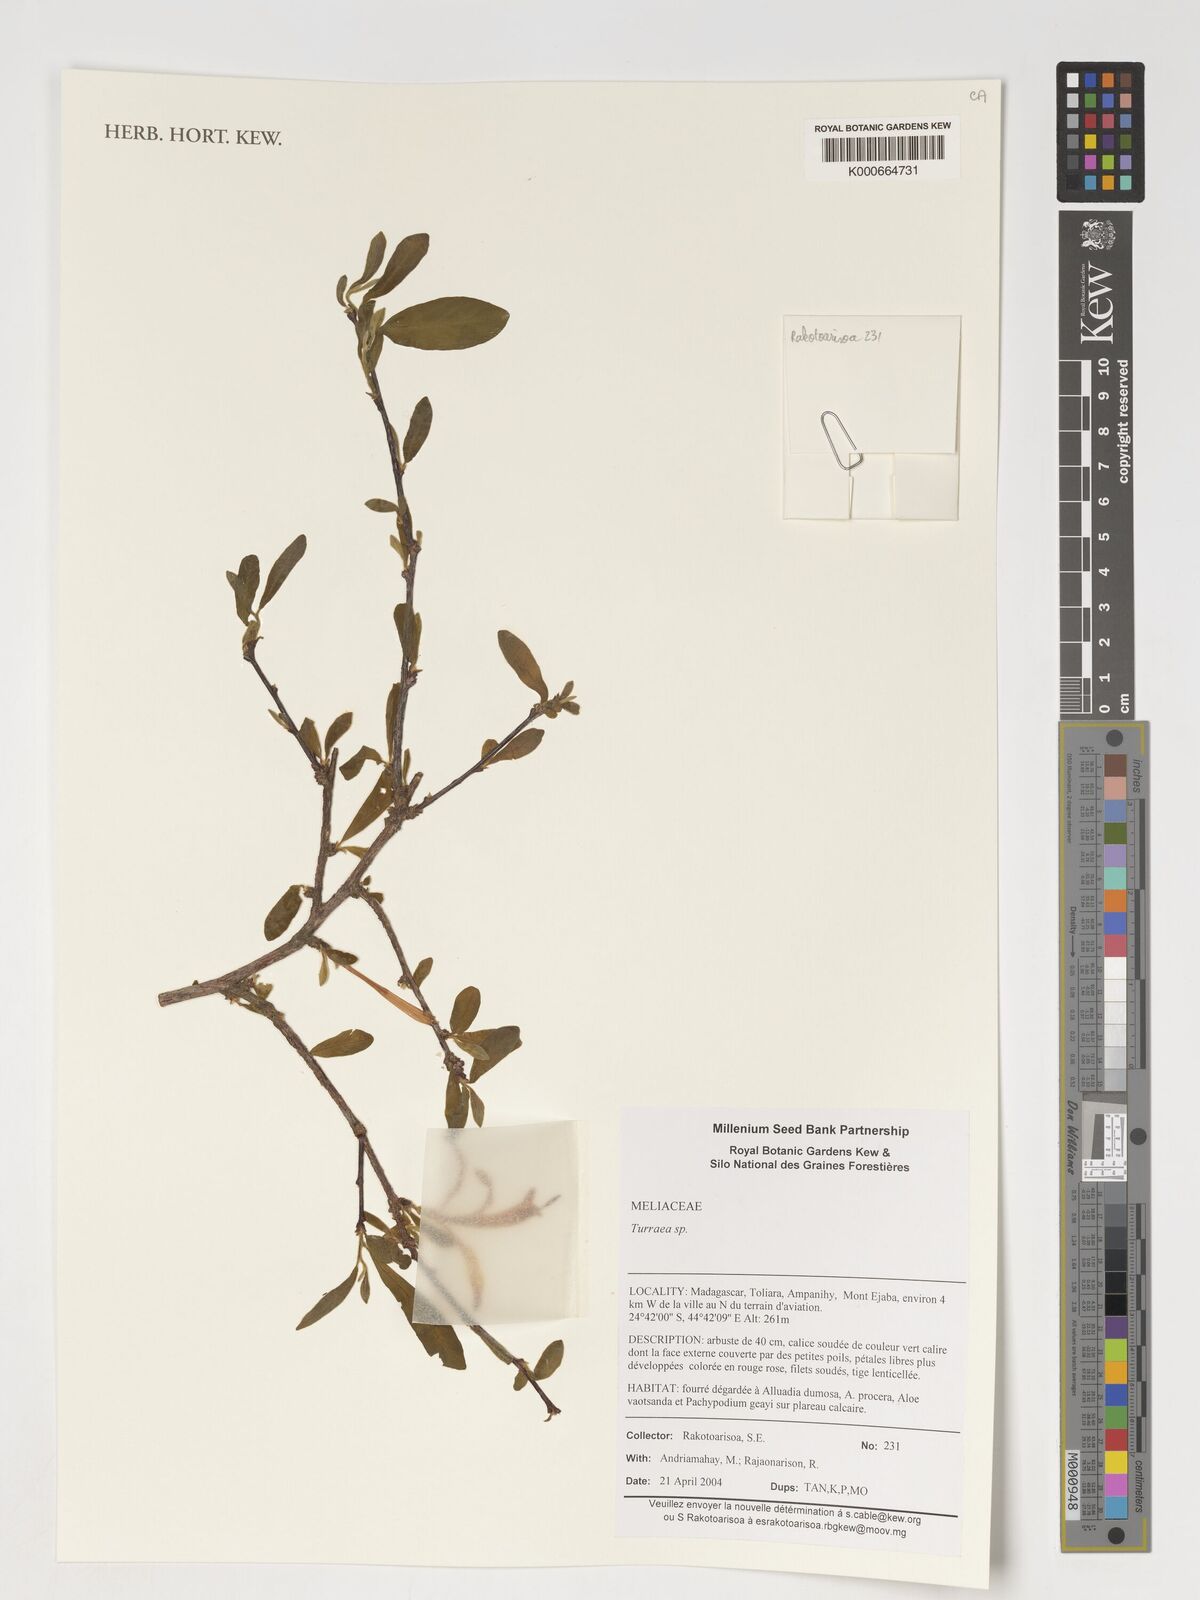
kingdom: Plantae
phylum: Tracheophyta
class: Magnoliopsida
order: Sapindales
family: Meliaceae
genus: Turraea
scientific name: Turraea
